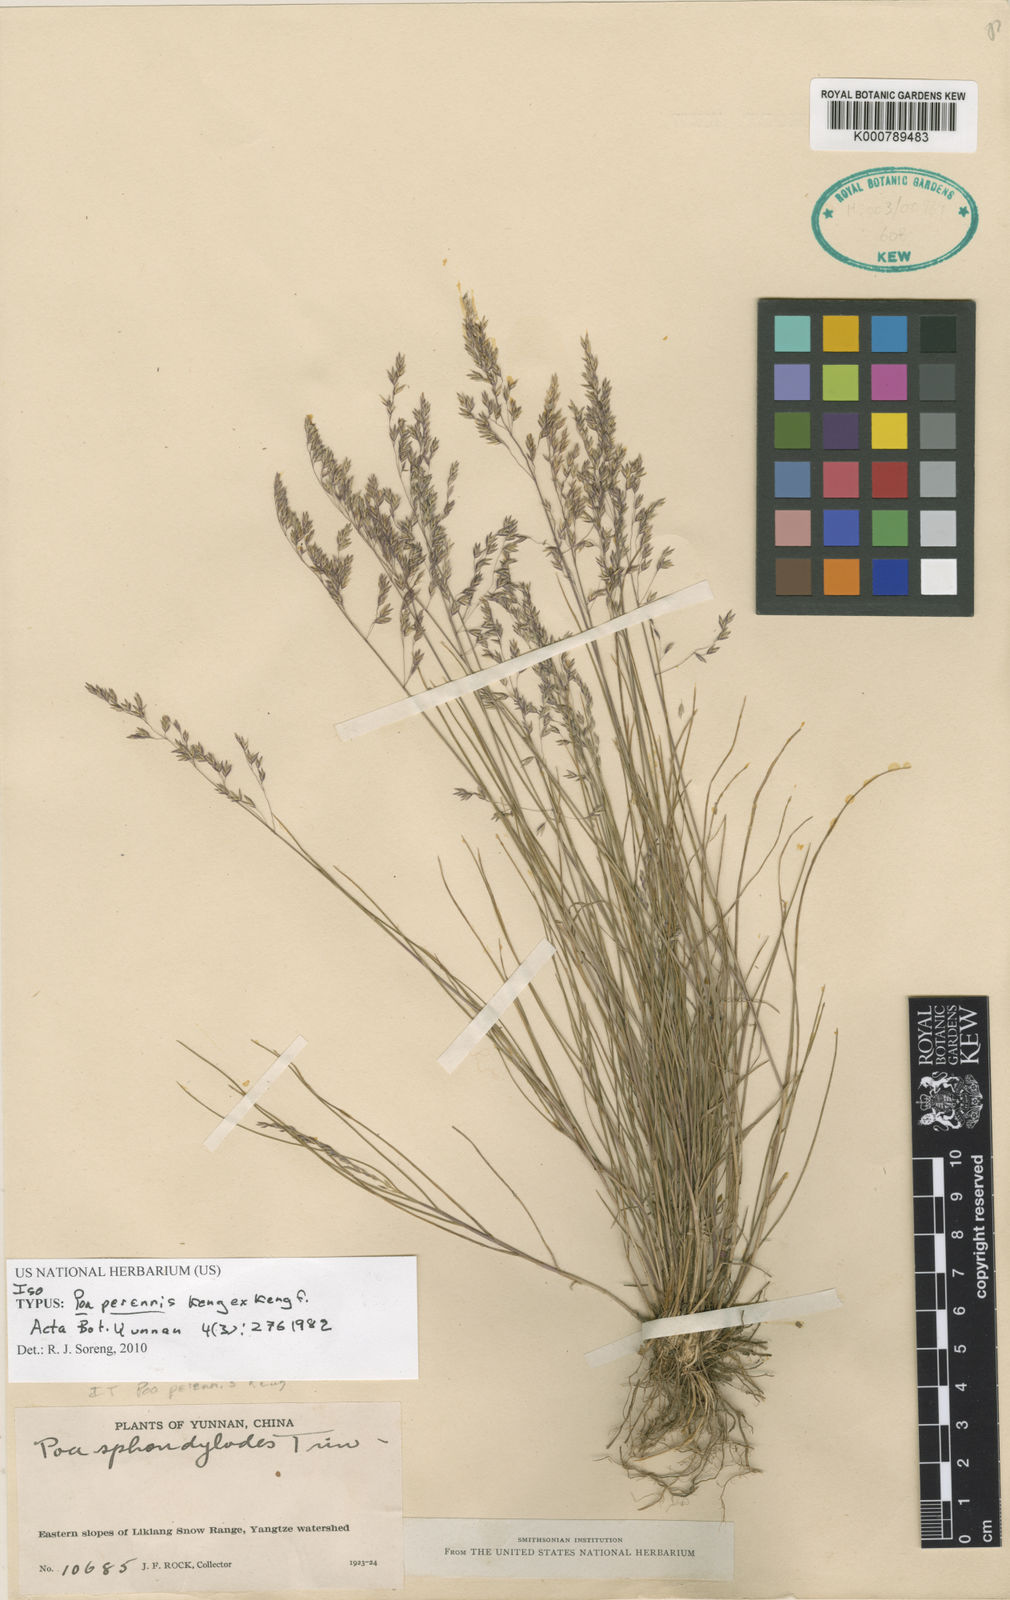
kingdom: Plantae
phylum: Tracheophyta
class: Liliopsida
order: Poales
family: Poaceae
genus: Poa
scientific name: Poa perennis
